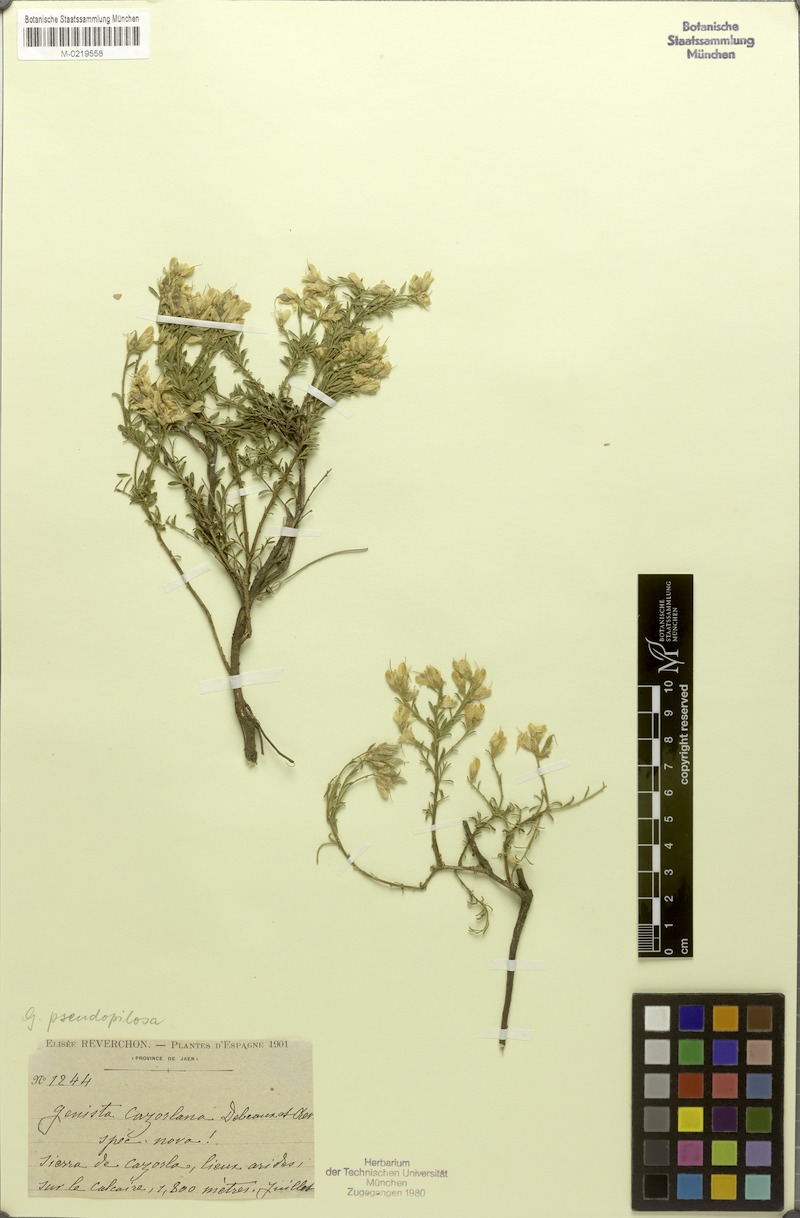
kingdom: Plantae
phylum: Tracheophyta
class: Magnoliopsida
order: Fabales
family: Fabaceae
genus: Genista
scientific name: Genista pseudopilosa
